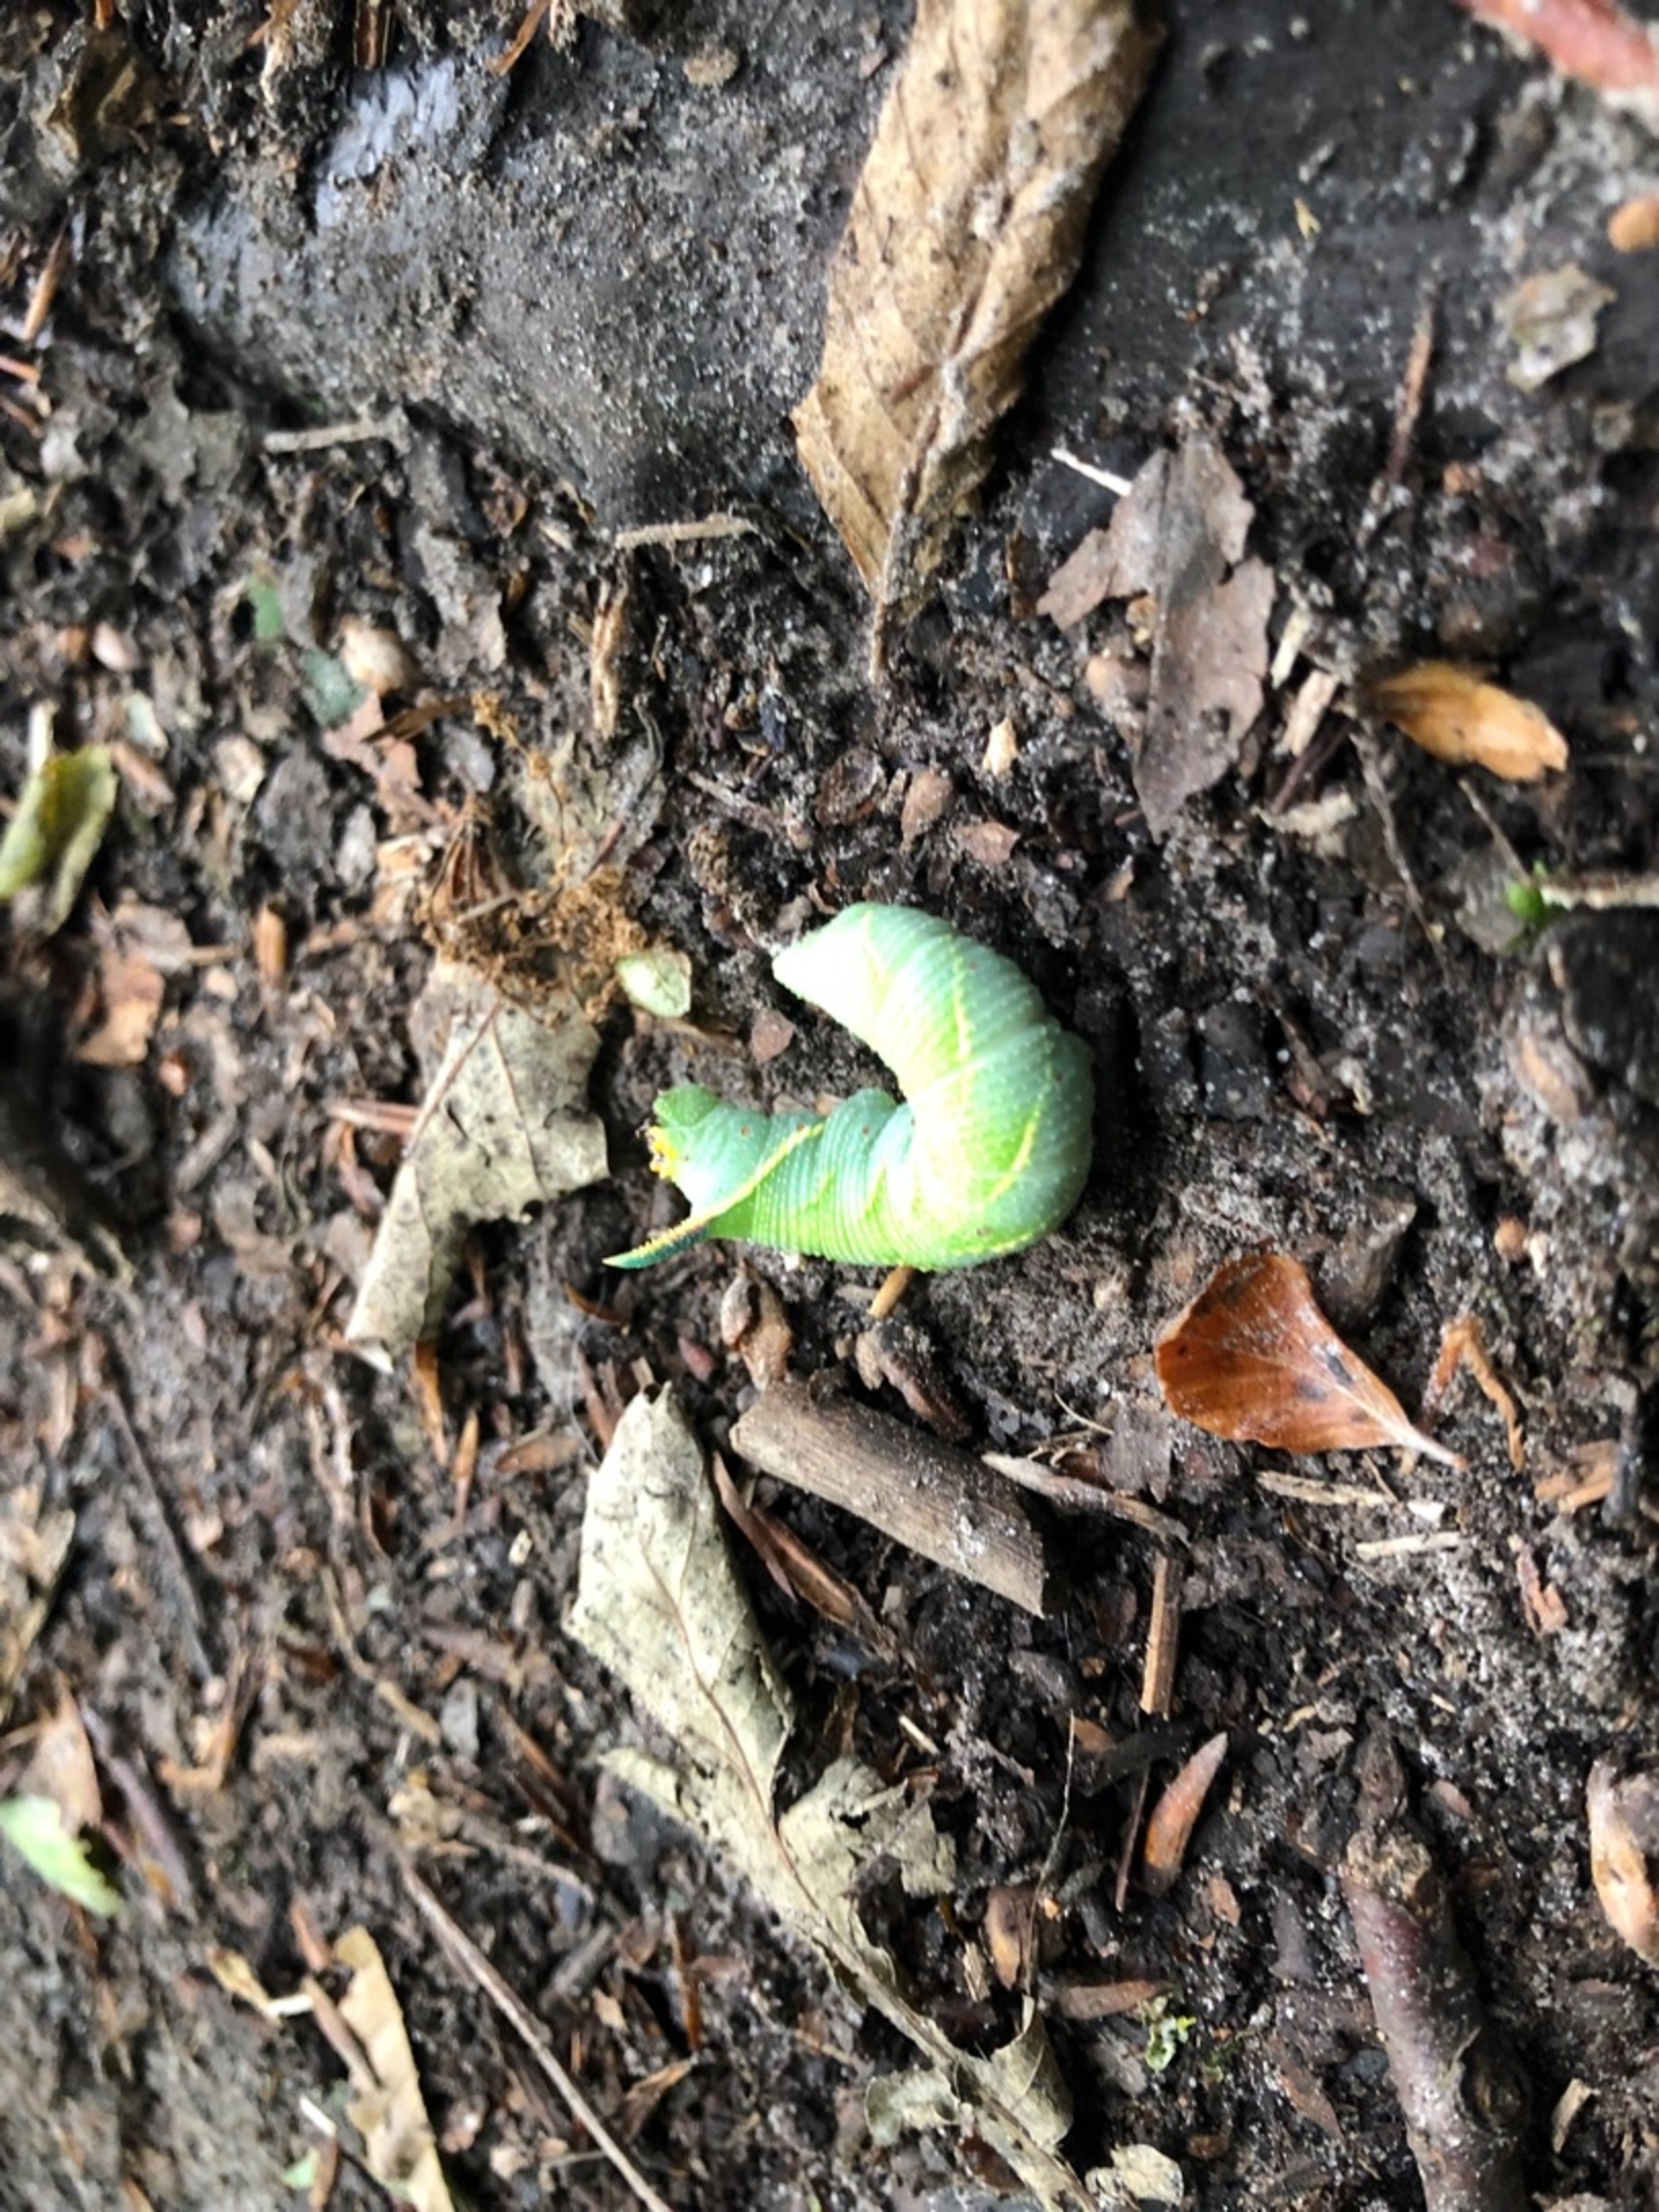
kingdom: Animalia
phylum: Arthropoda
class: Insecta
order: Lepidoptera
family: Sphingidae
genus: Laothoe
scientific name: Laothoe populi
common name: Poppelsværmer
